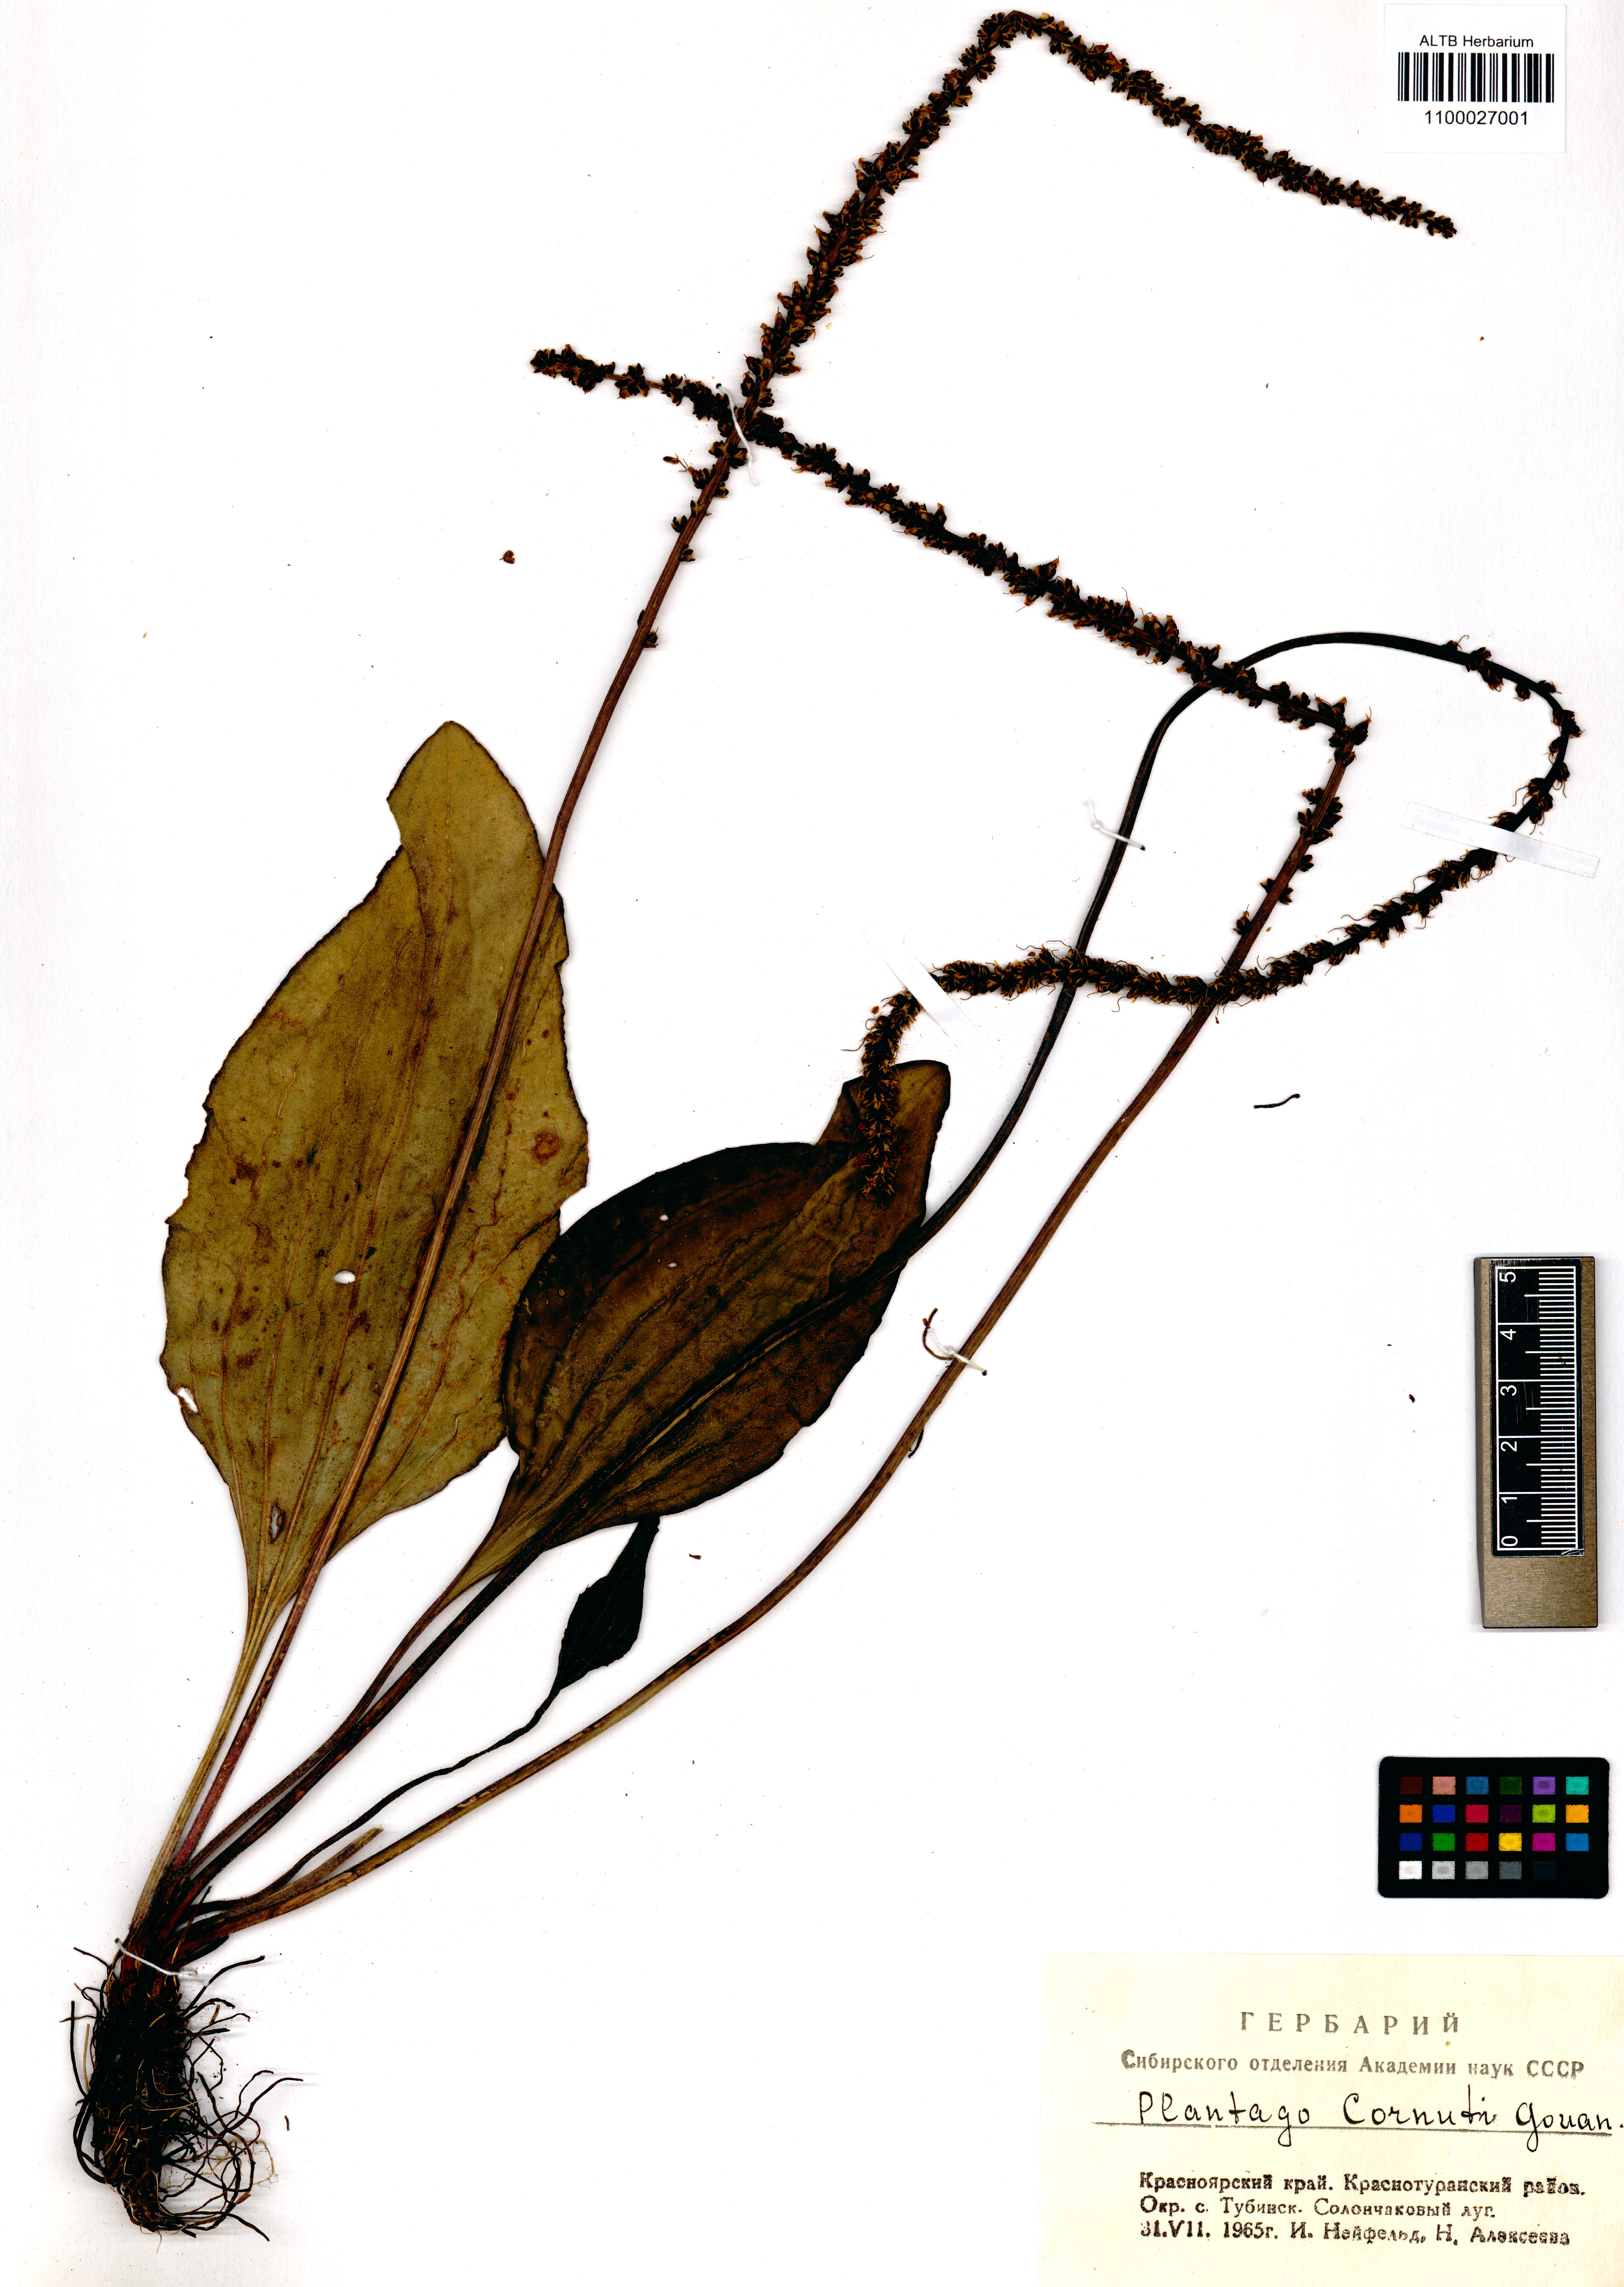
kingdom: Plantae
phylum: Tracheophyta
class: Magnoliopsida
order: Lamiales
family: Plantaginaceae
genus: Plantago
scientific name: Plantago cornuti
